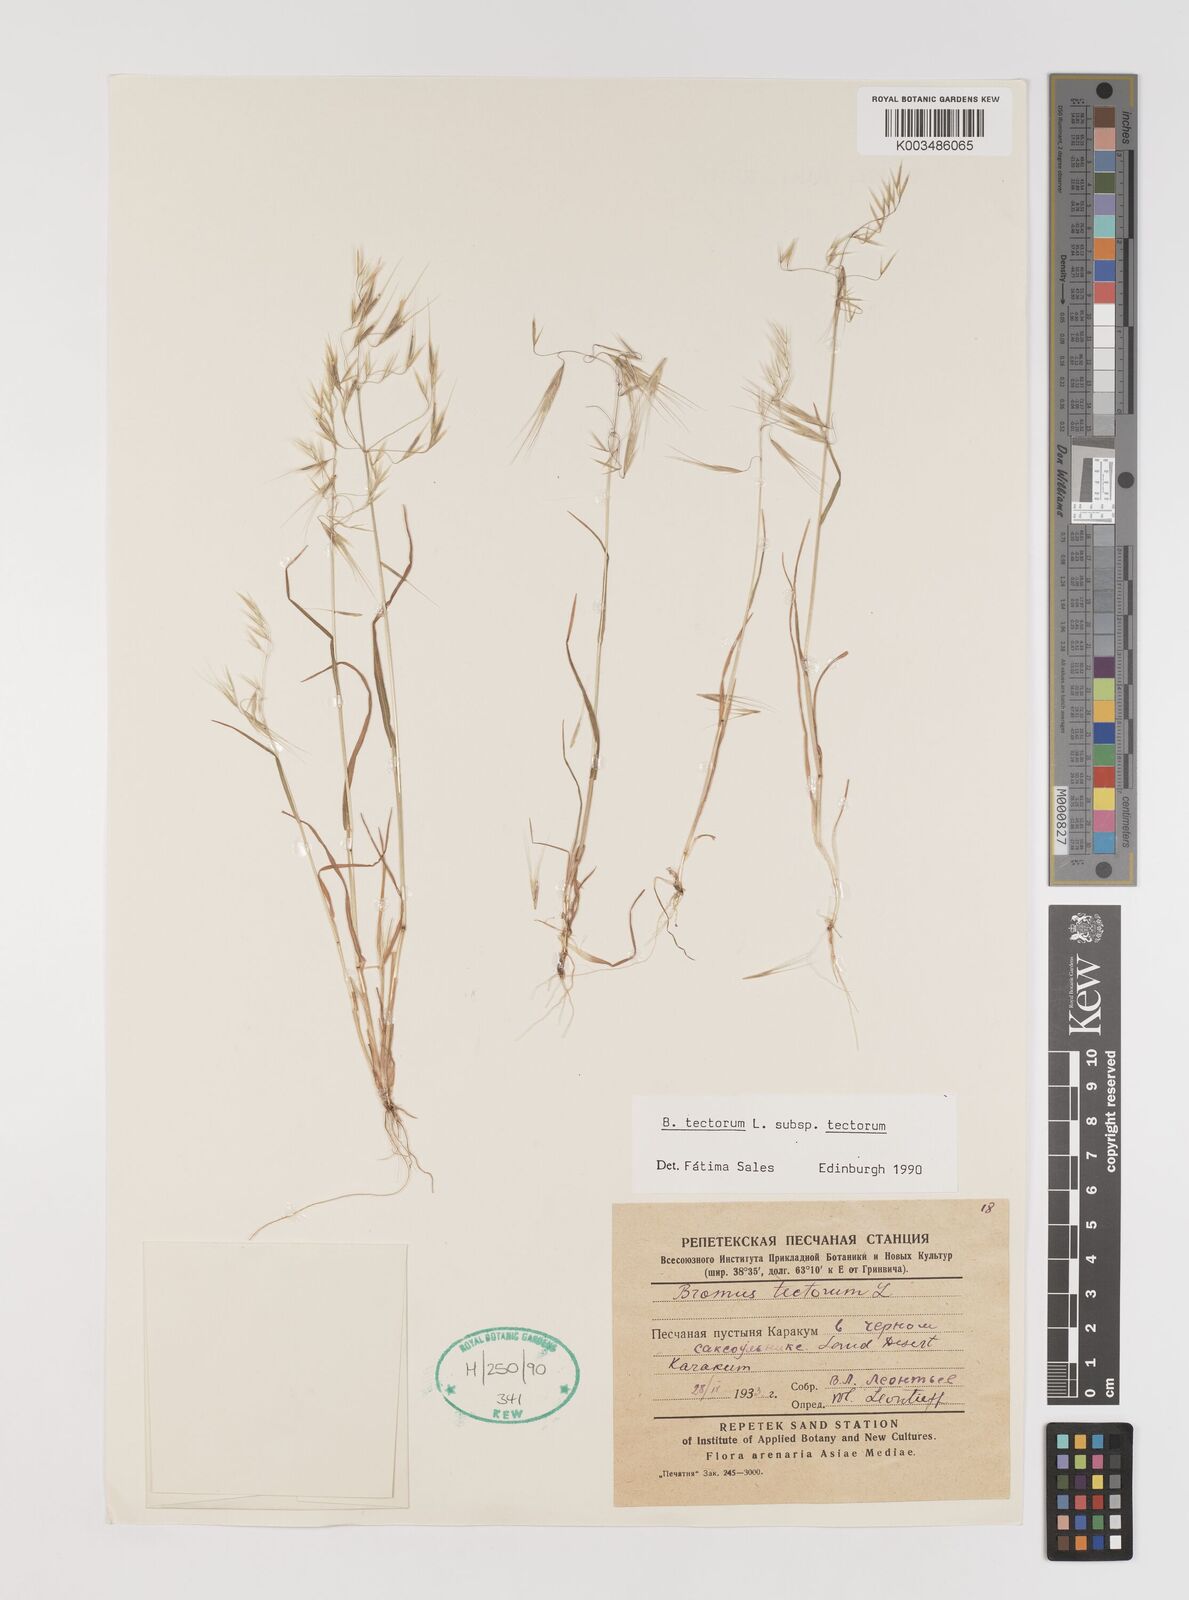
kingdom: Plantae
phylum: Tracheophyta
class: Liliopsida
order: Poales
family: Poaceae
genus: Bromus
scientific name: Bromus tectorum
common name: Cheatgrass
